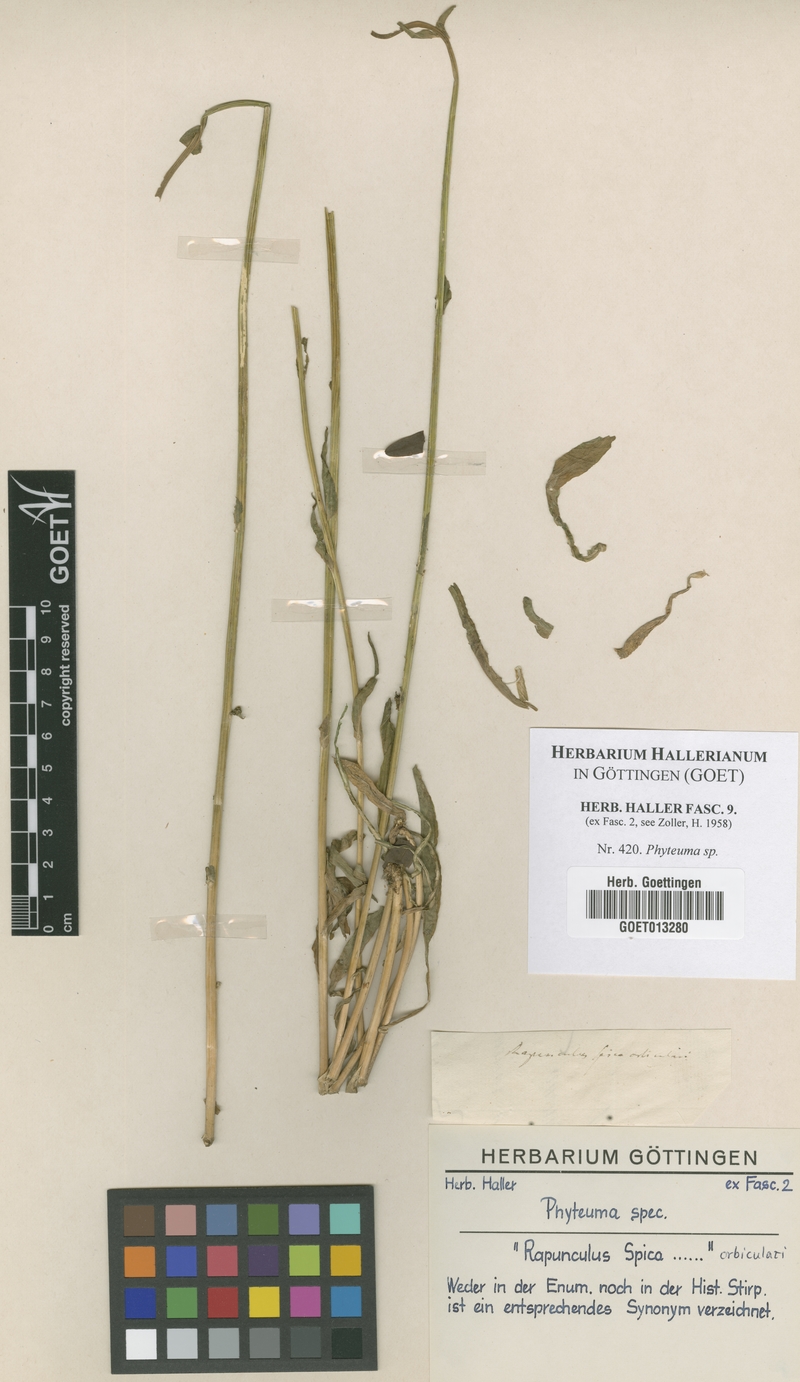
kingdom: Plantae
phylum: Tracheophyta
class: Magnoliopsida
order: Asterales
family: Campanulaceae
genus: Phyteuma
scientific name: Phyteuma
